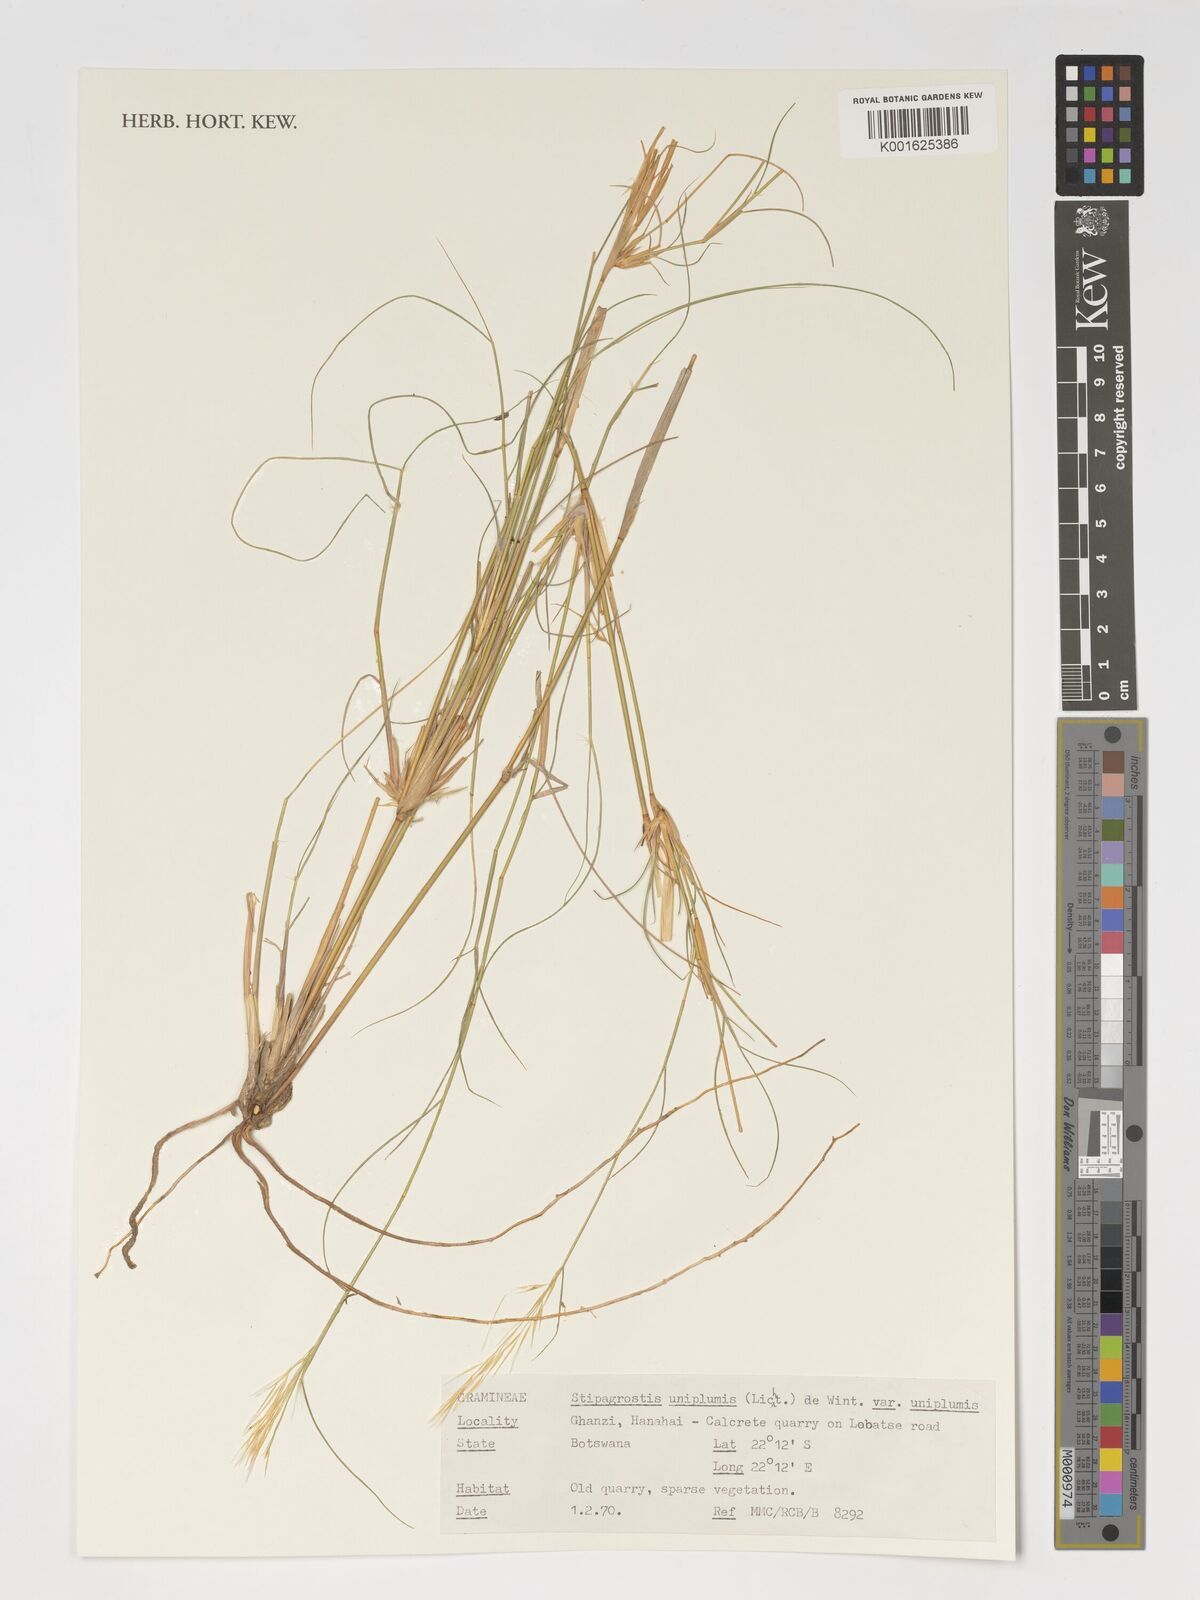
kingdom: Plantae
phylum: Tracheophyta
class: Liliopsida
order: Poales
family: Poaceae
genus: Stipagrostis
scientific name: Stipagrostis uniplumis
